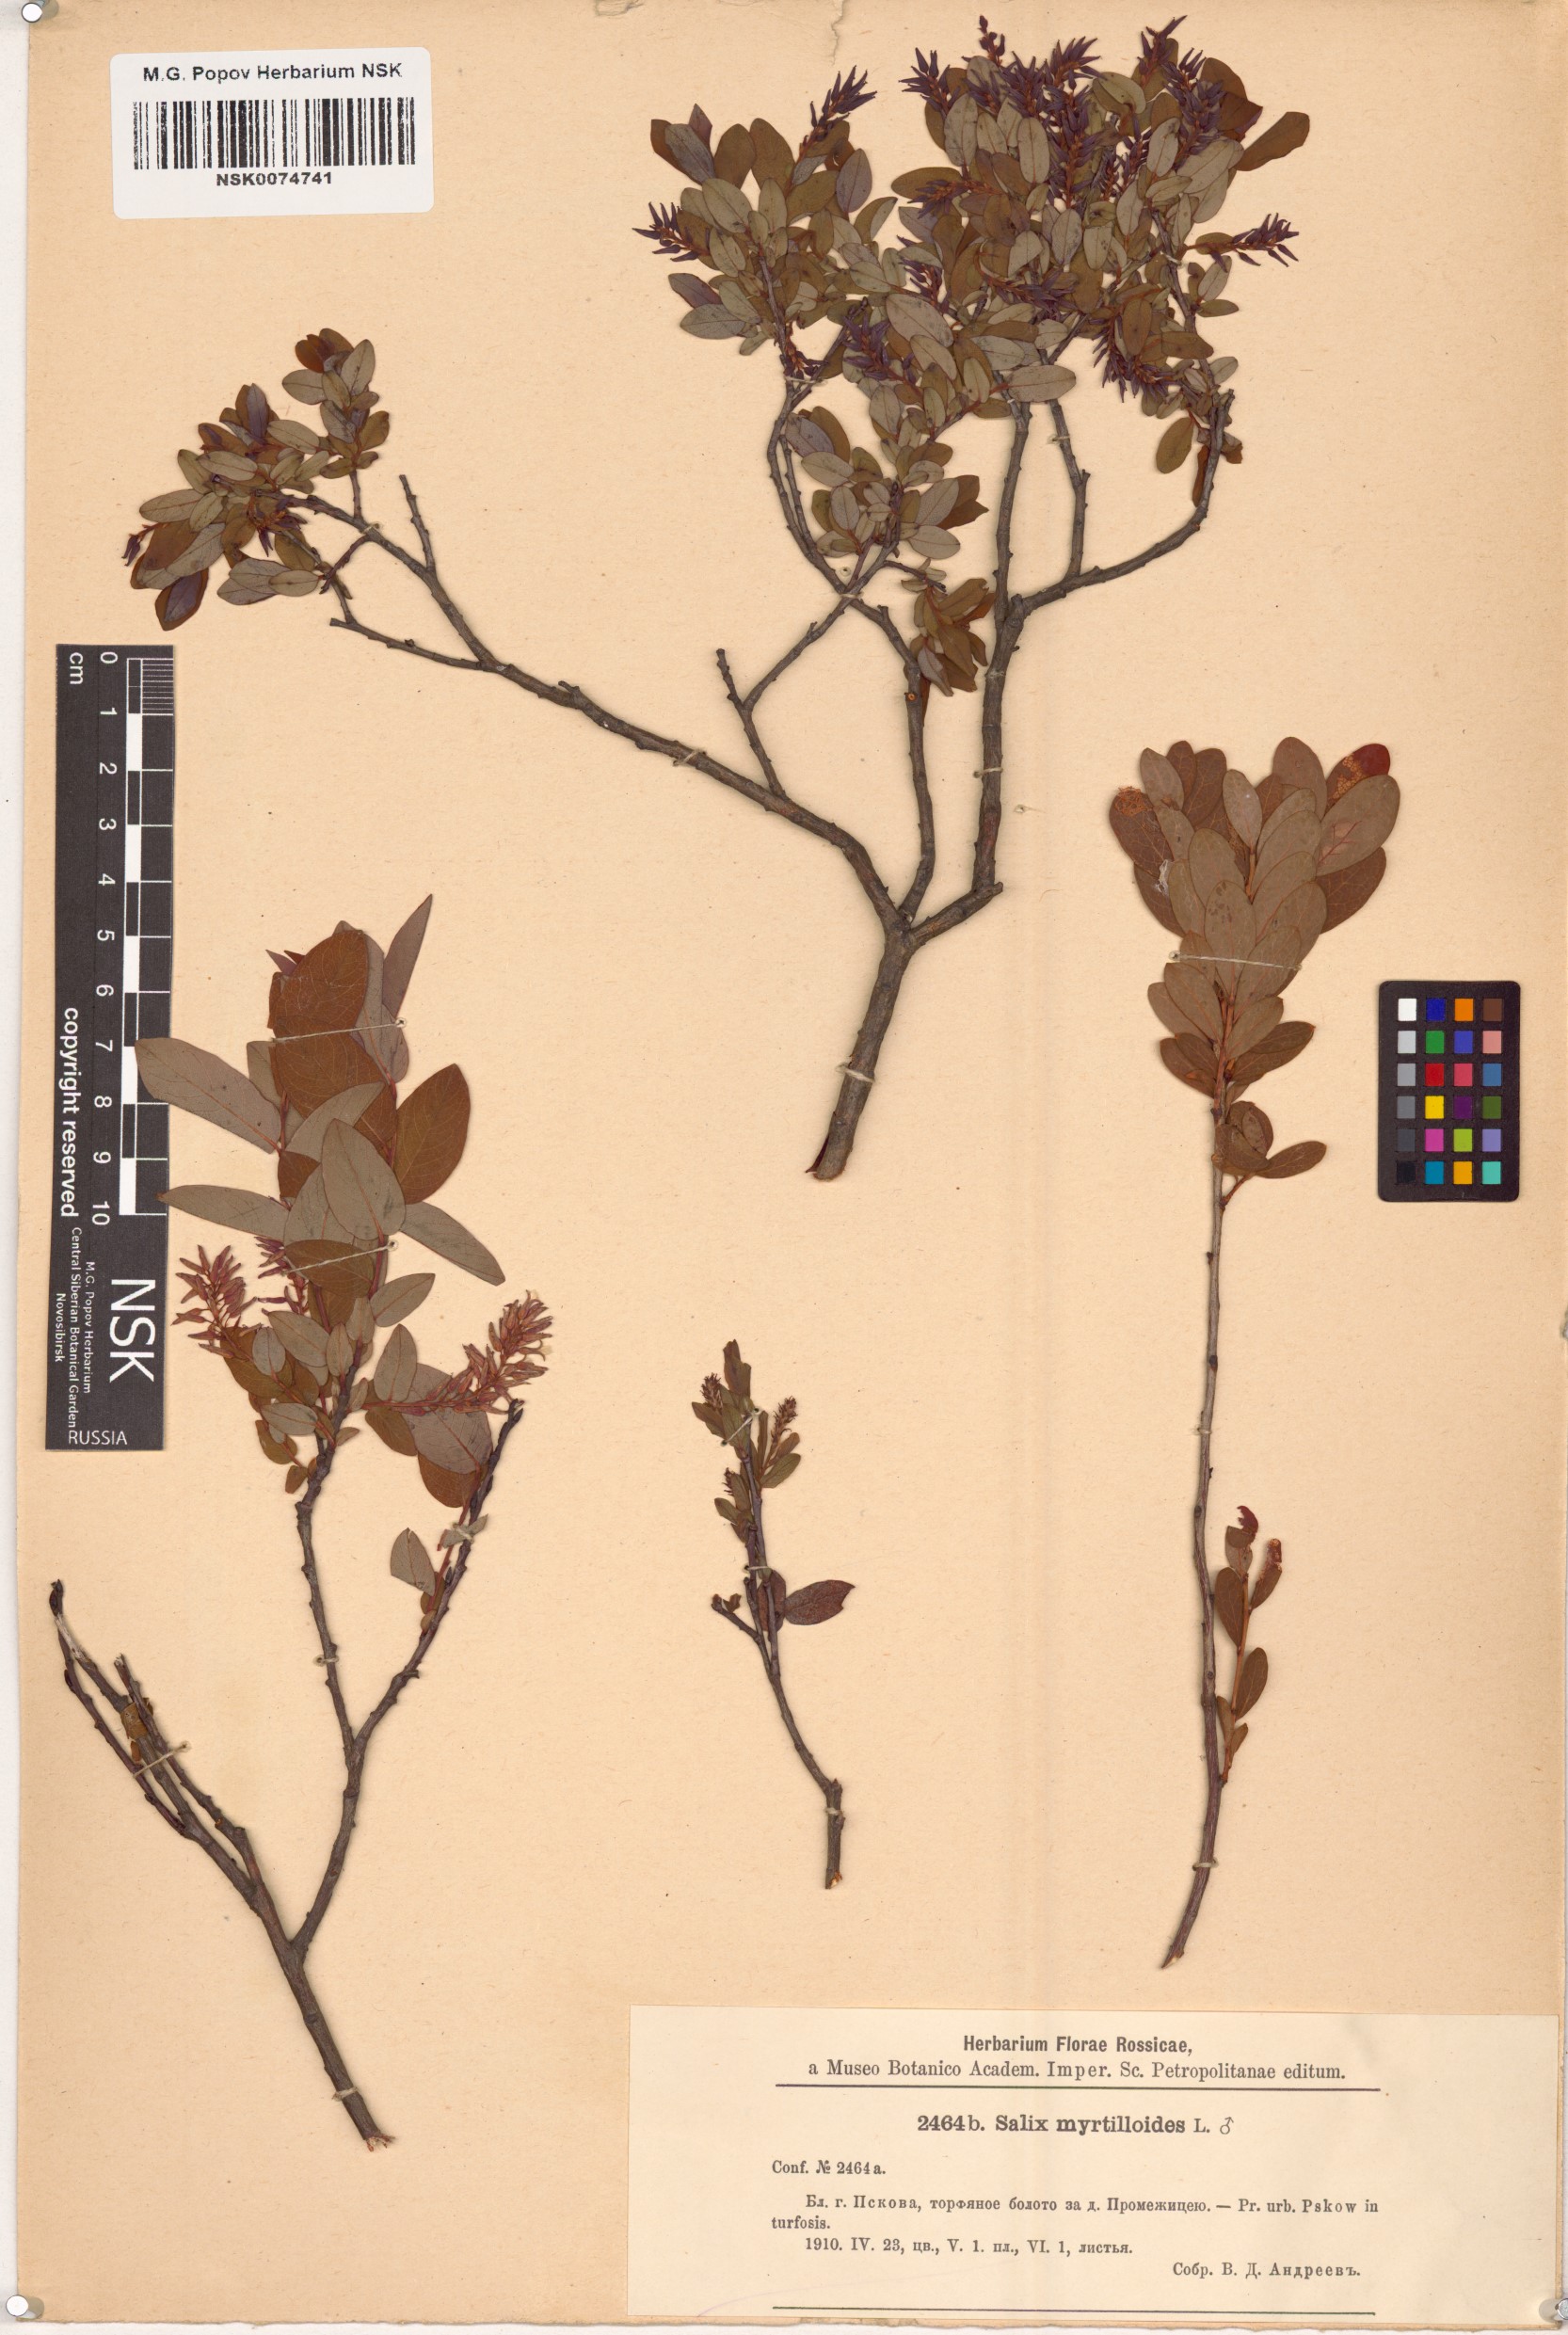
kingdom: Plantae
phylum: Tracheophyta
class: Magnoliopsida
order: Malpighiales
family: Salicaceae
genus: Salix
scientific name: Salix myrtilloides
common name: Myrtle-leaved willow
